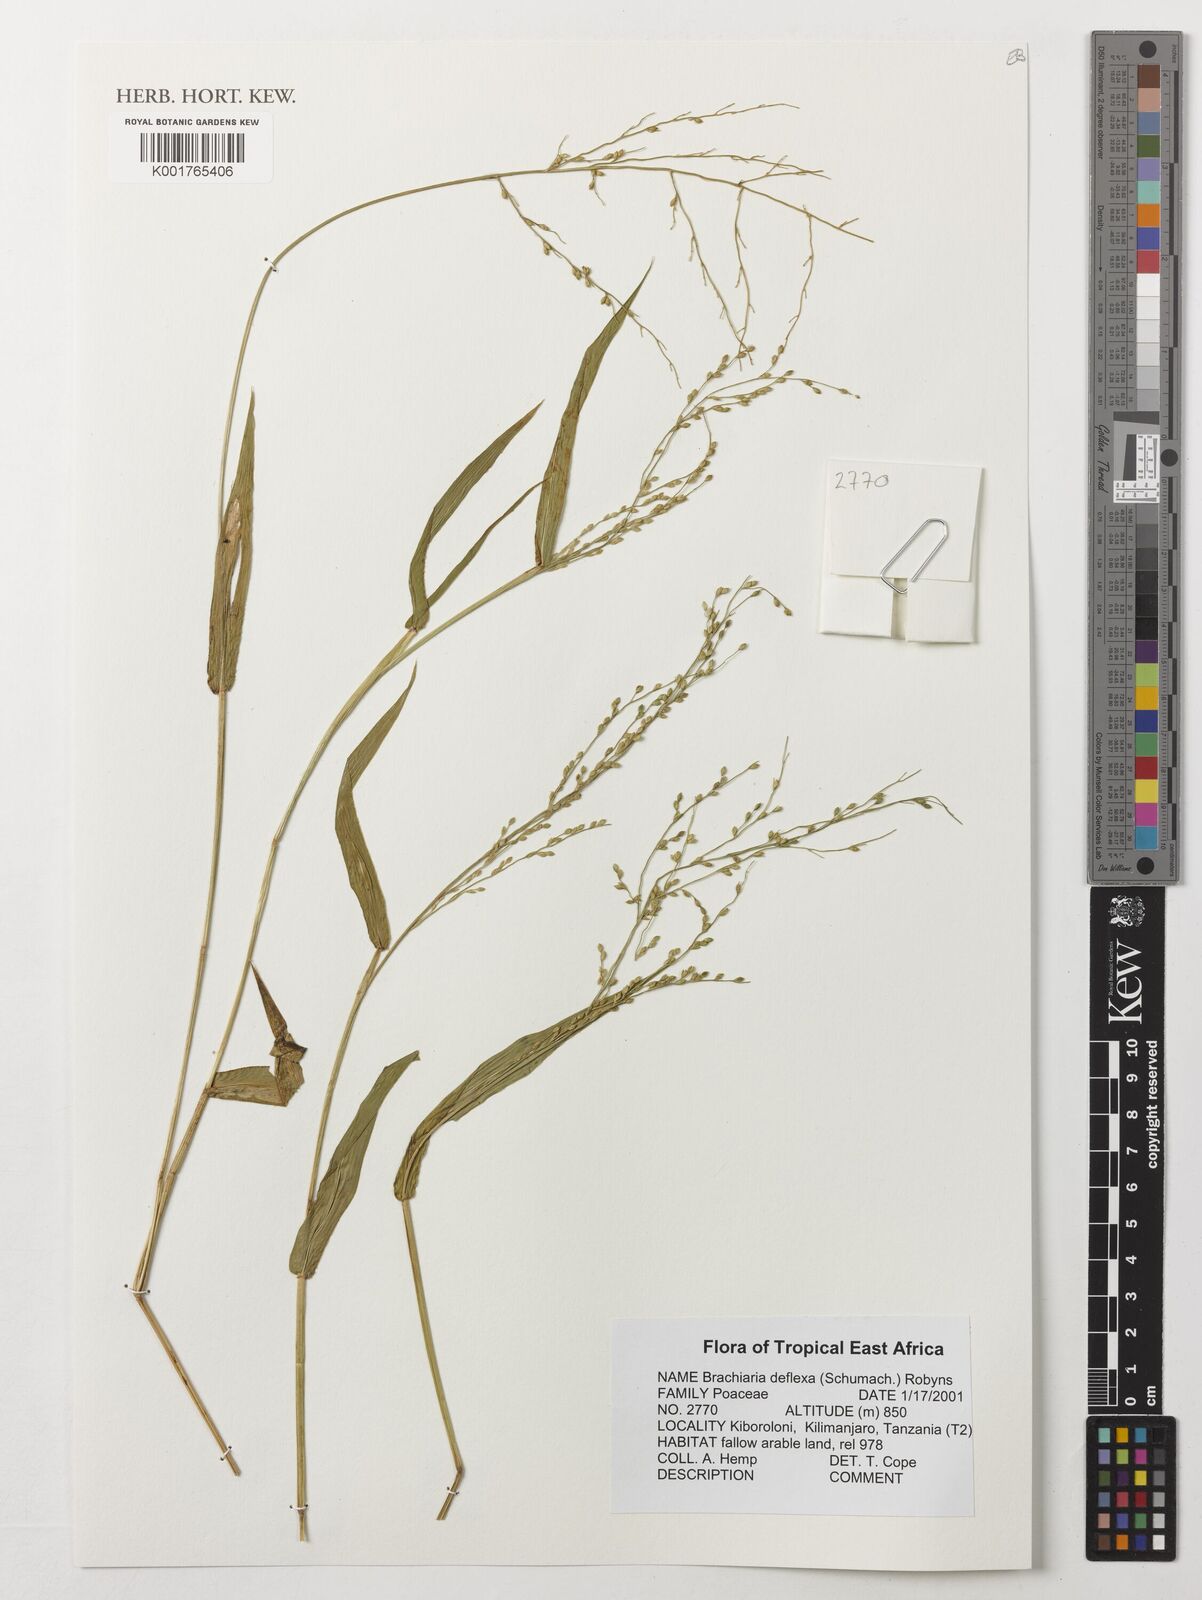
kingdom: Plantae
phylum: Tracheophyta
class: Liliopsida
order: Poales
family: Poaceae
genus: Urochloa
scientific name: Urochloa deflexa
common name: Guinea millet
